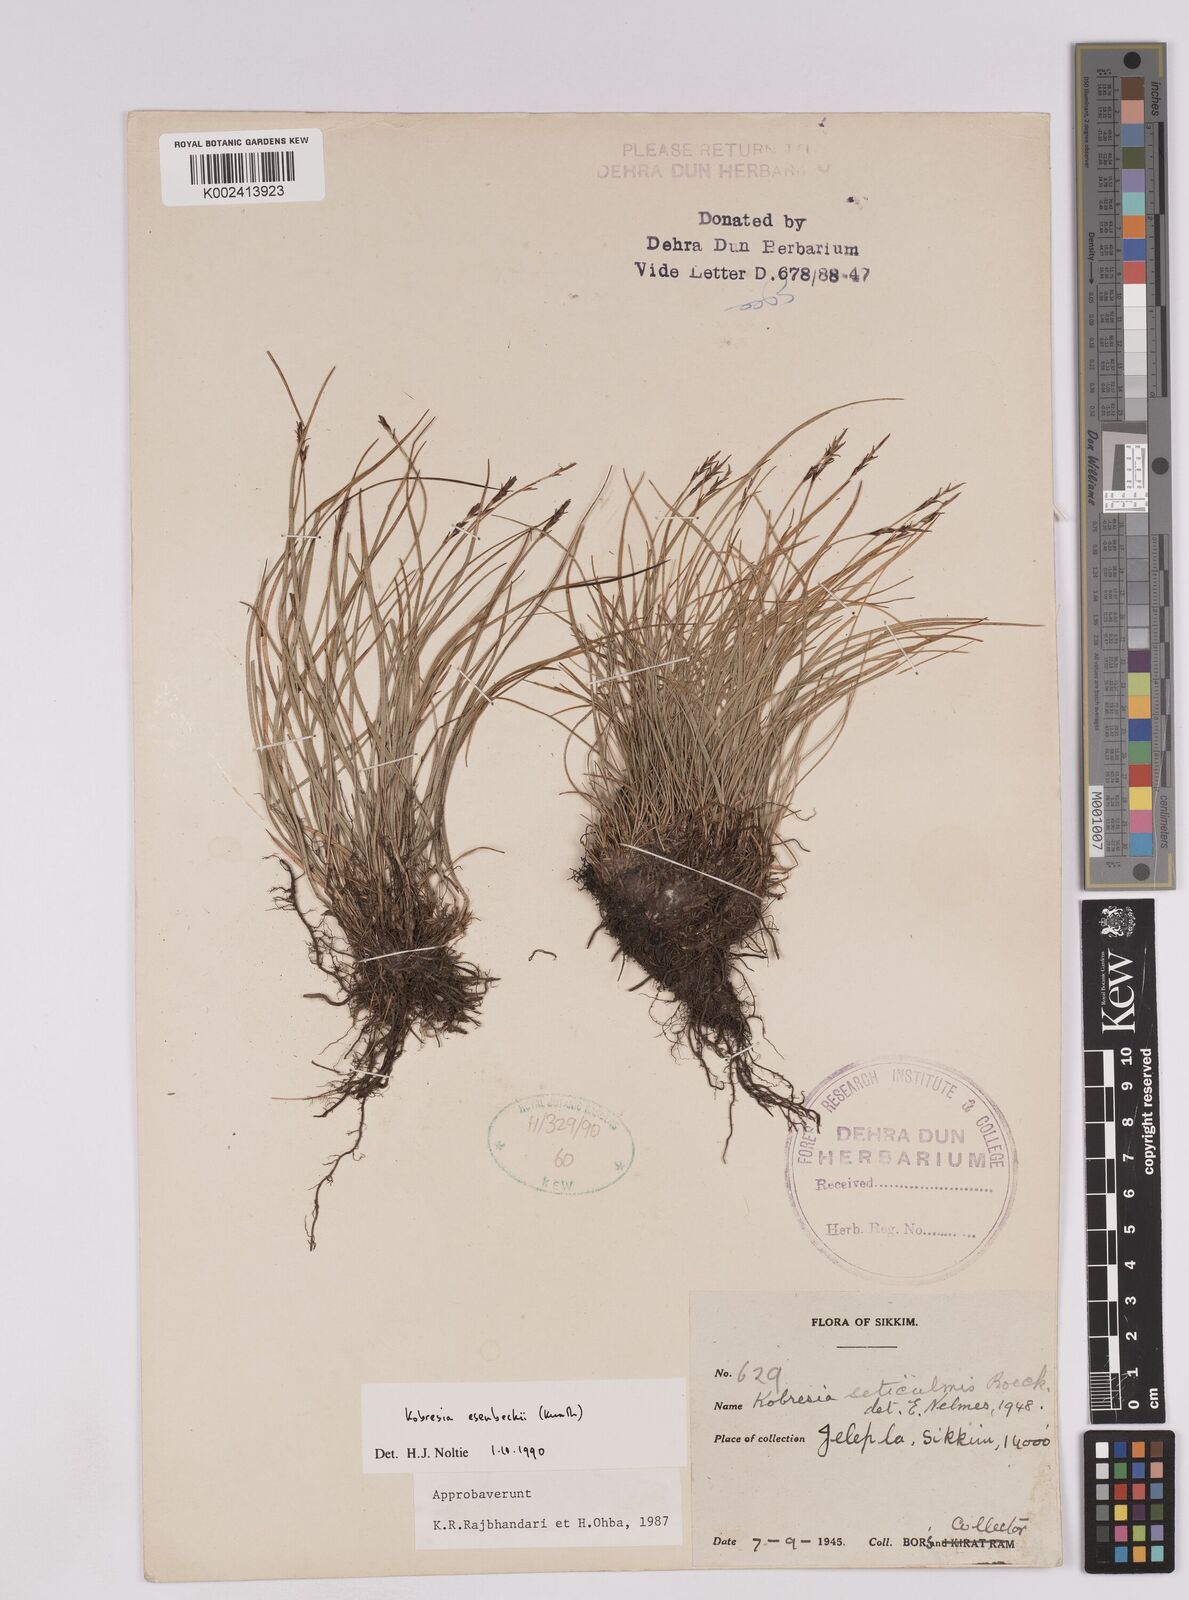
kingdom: Plantae
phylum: Tracheophyta
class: Liliopsida
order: Poales
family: Cyperaceae
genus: Carex
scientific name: Carex esenbeckii
